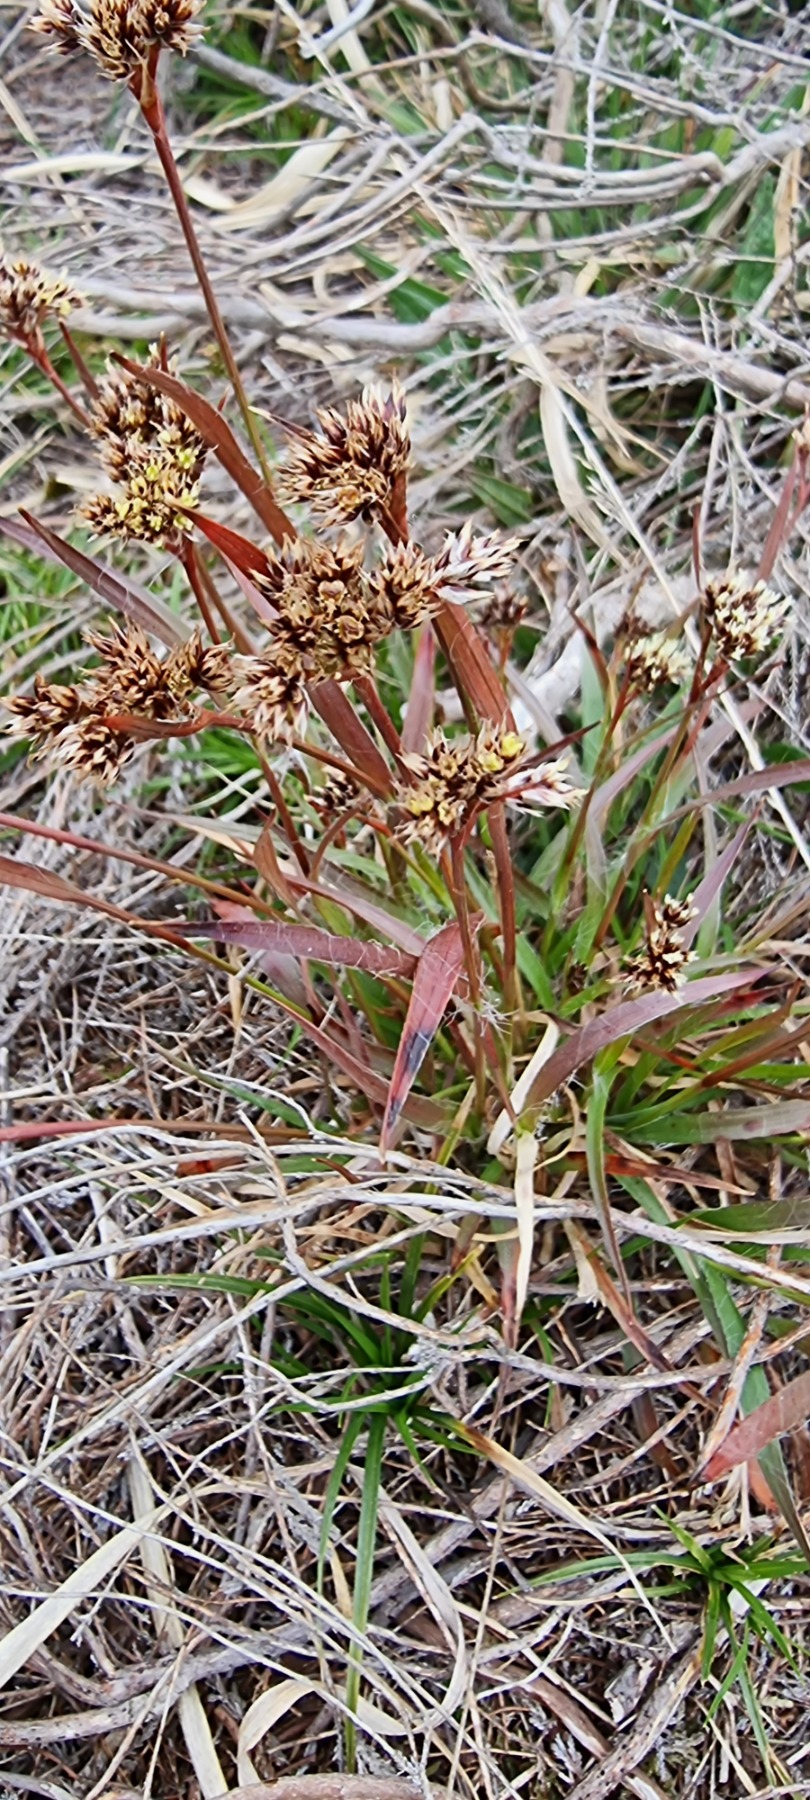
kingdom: Plantae
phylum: Tracheophyta
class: Liliopsida
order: Poales
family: Juncaceae
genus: Luzula
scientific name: Luzula campestris
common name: Mark-frytle
